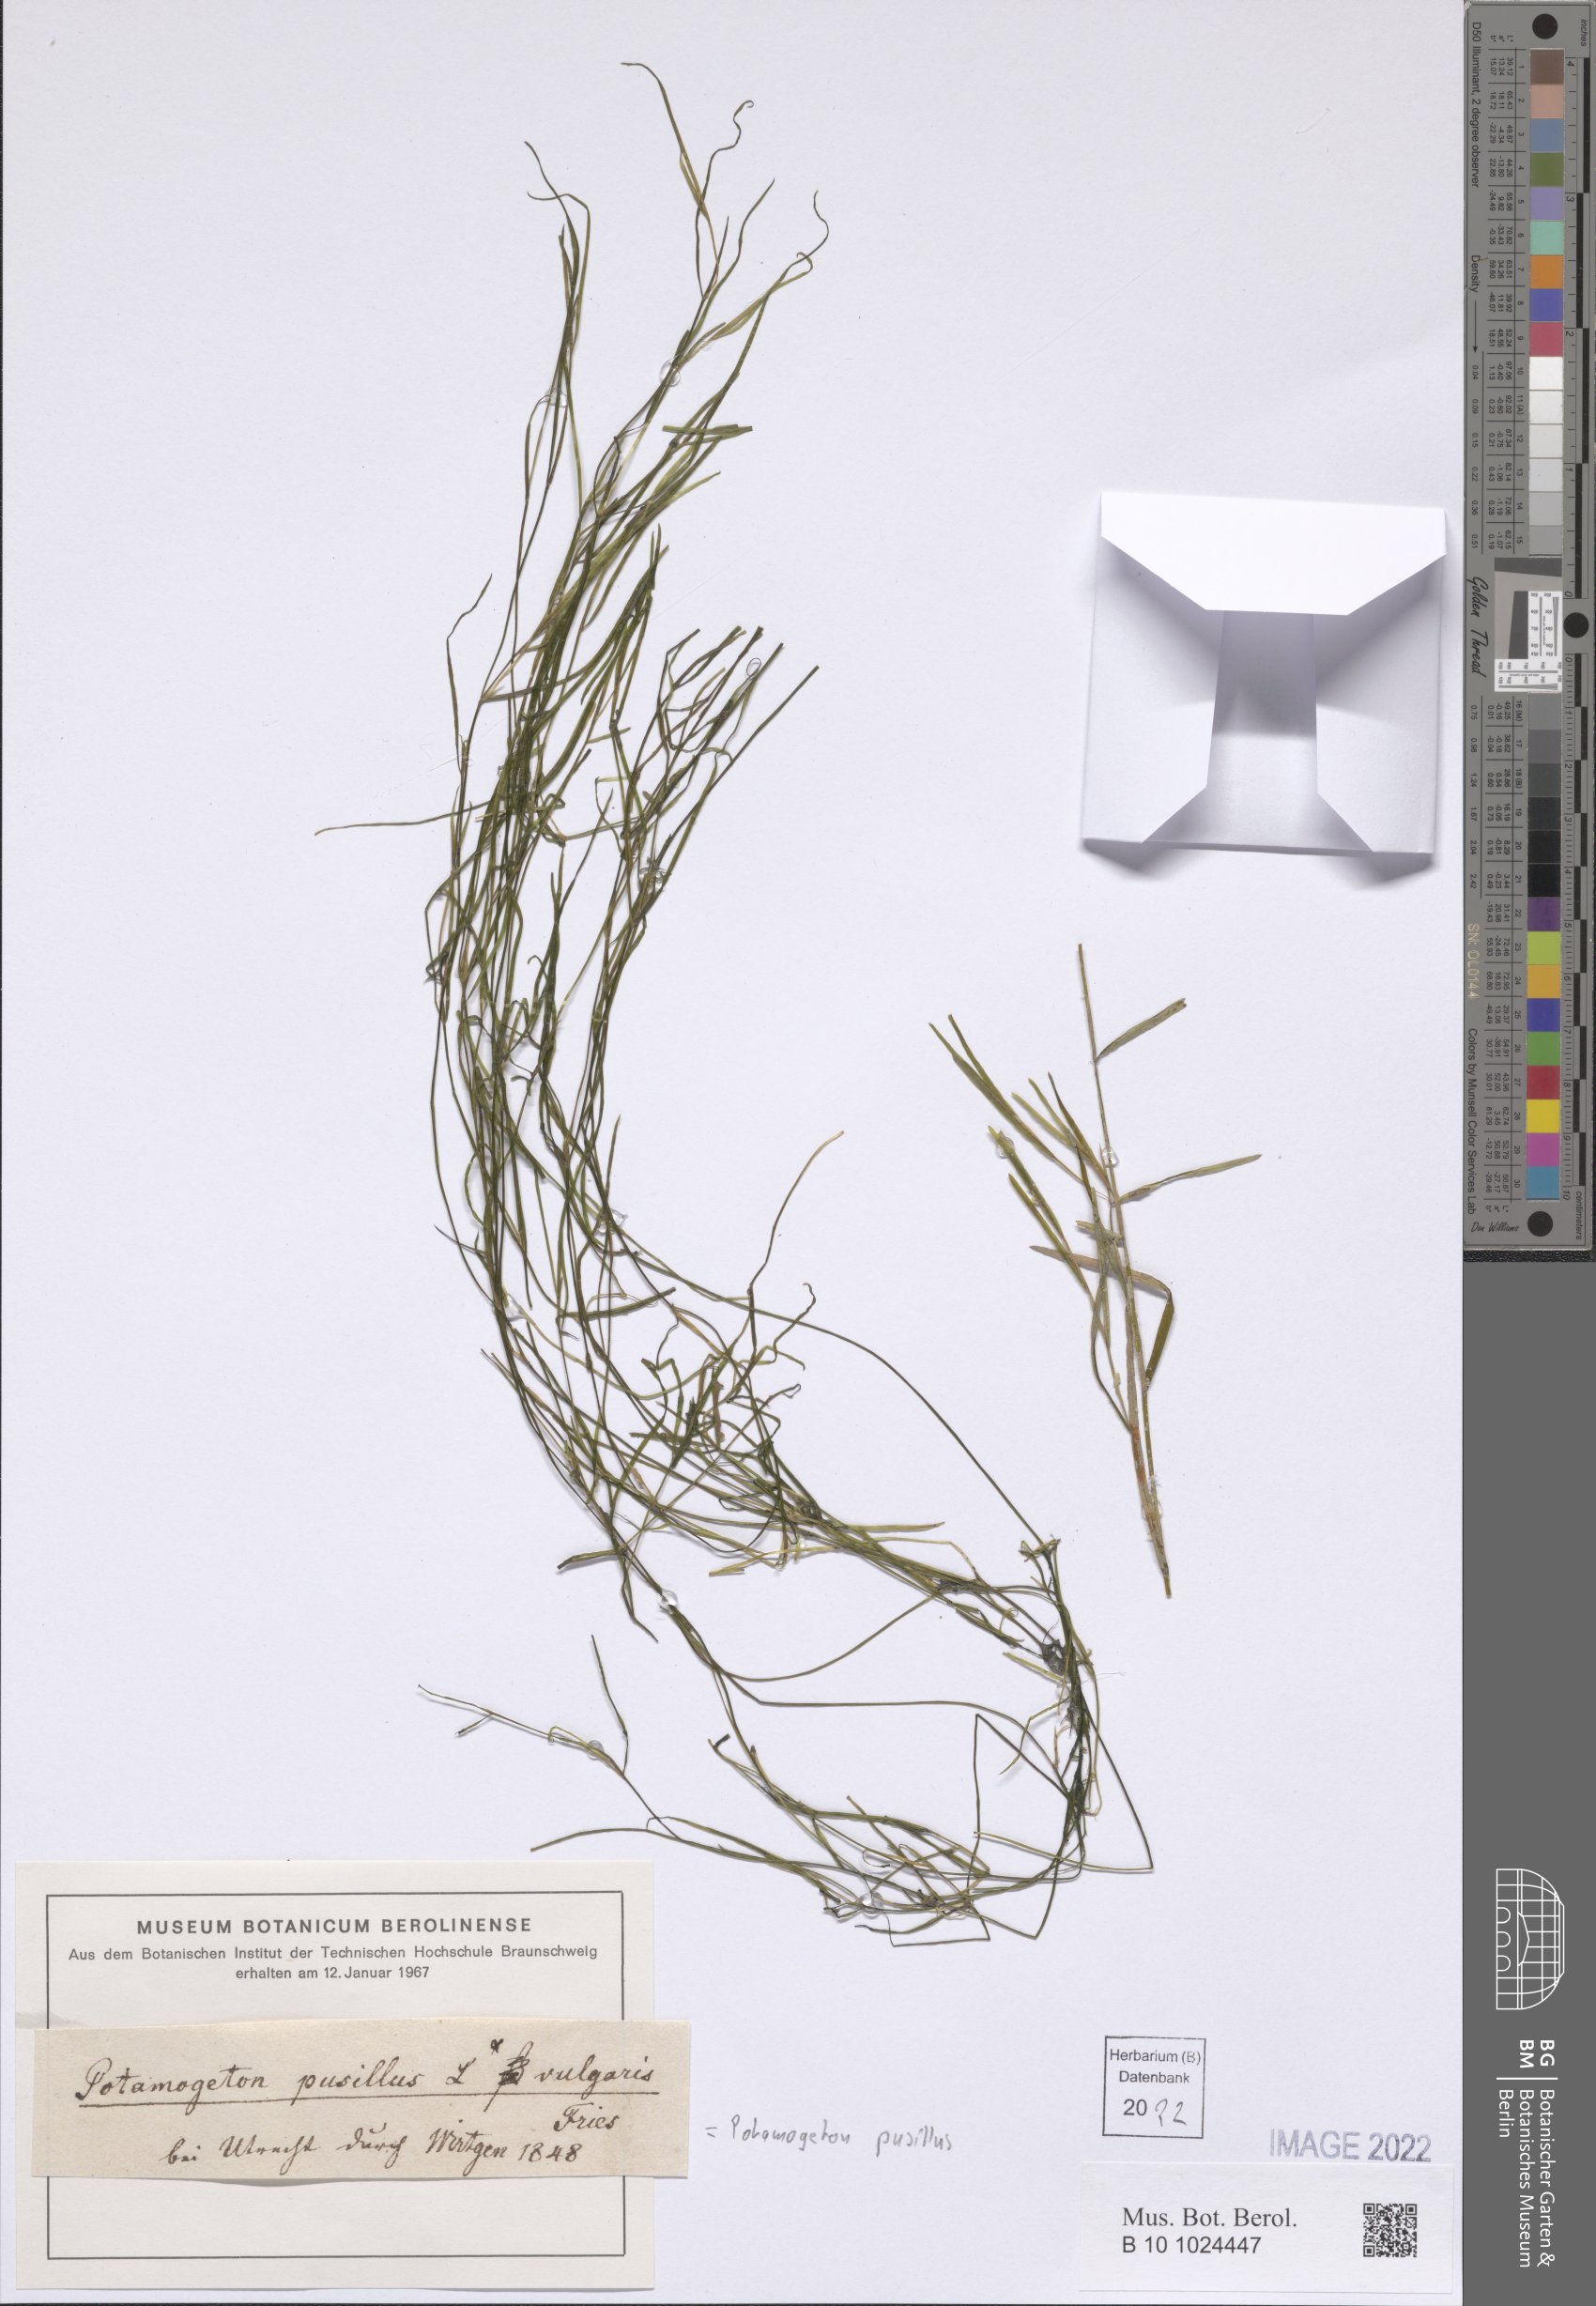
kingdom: Plantae
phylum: Tracheophyta
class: Liliopsida
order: Alismatales
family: Potamogetonaceae
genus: Potamogeton
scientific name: Potamogeton pusillus
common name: Lesser pondweed
